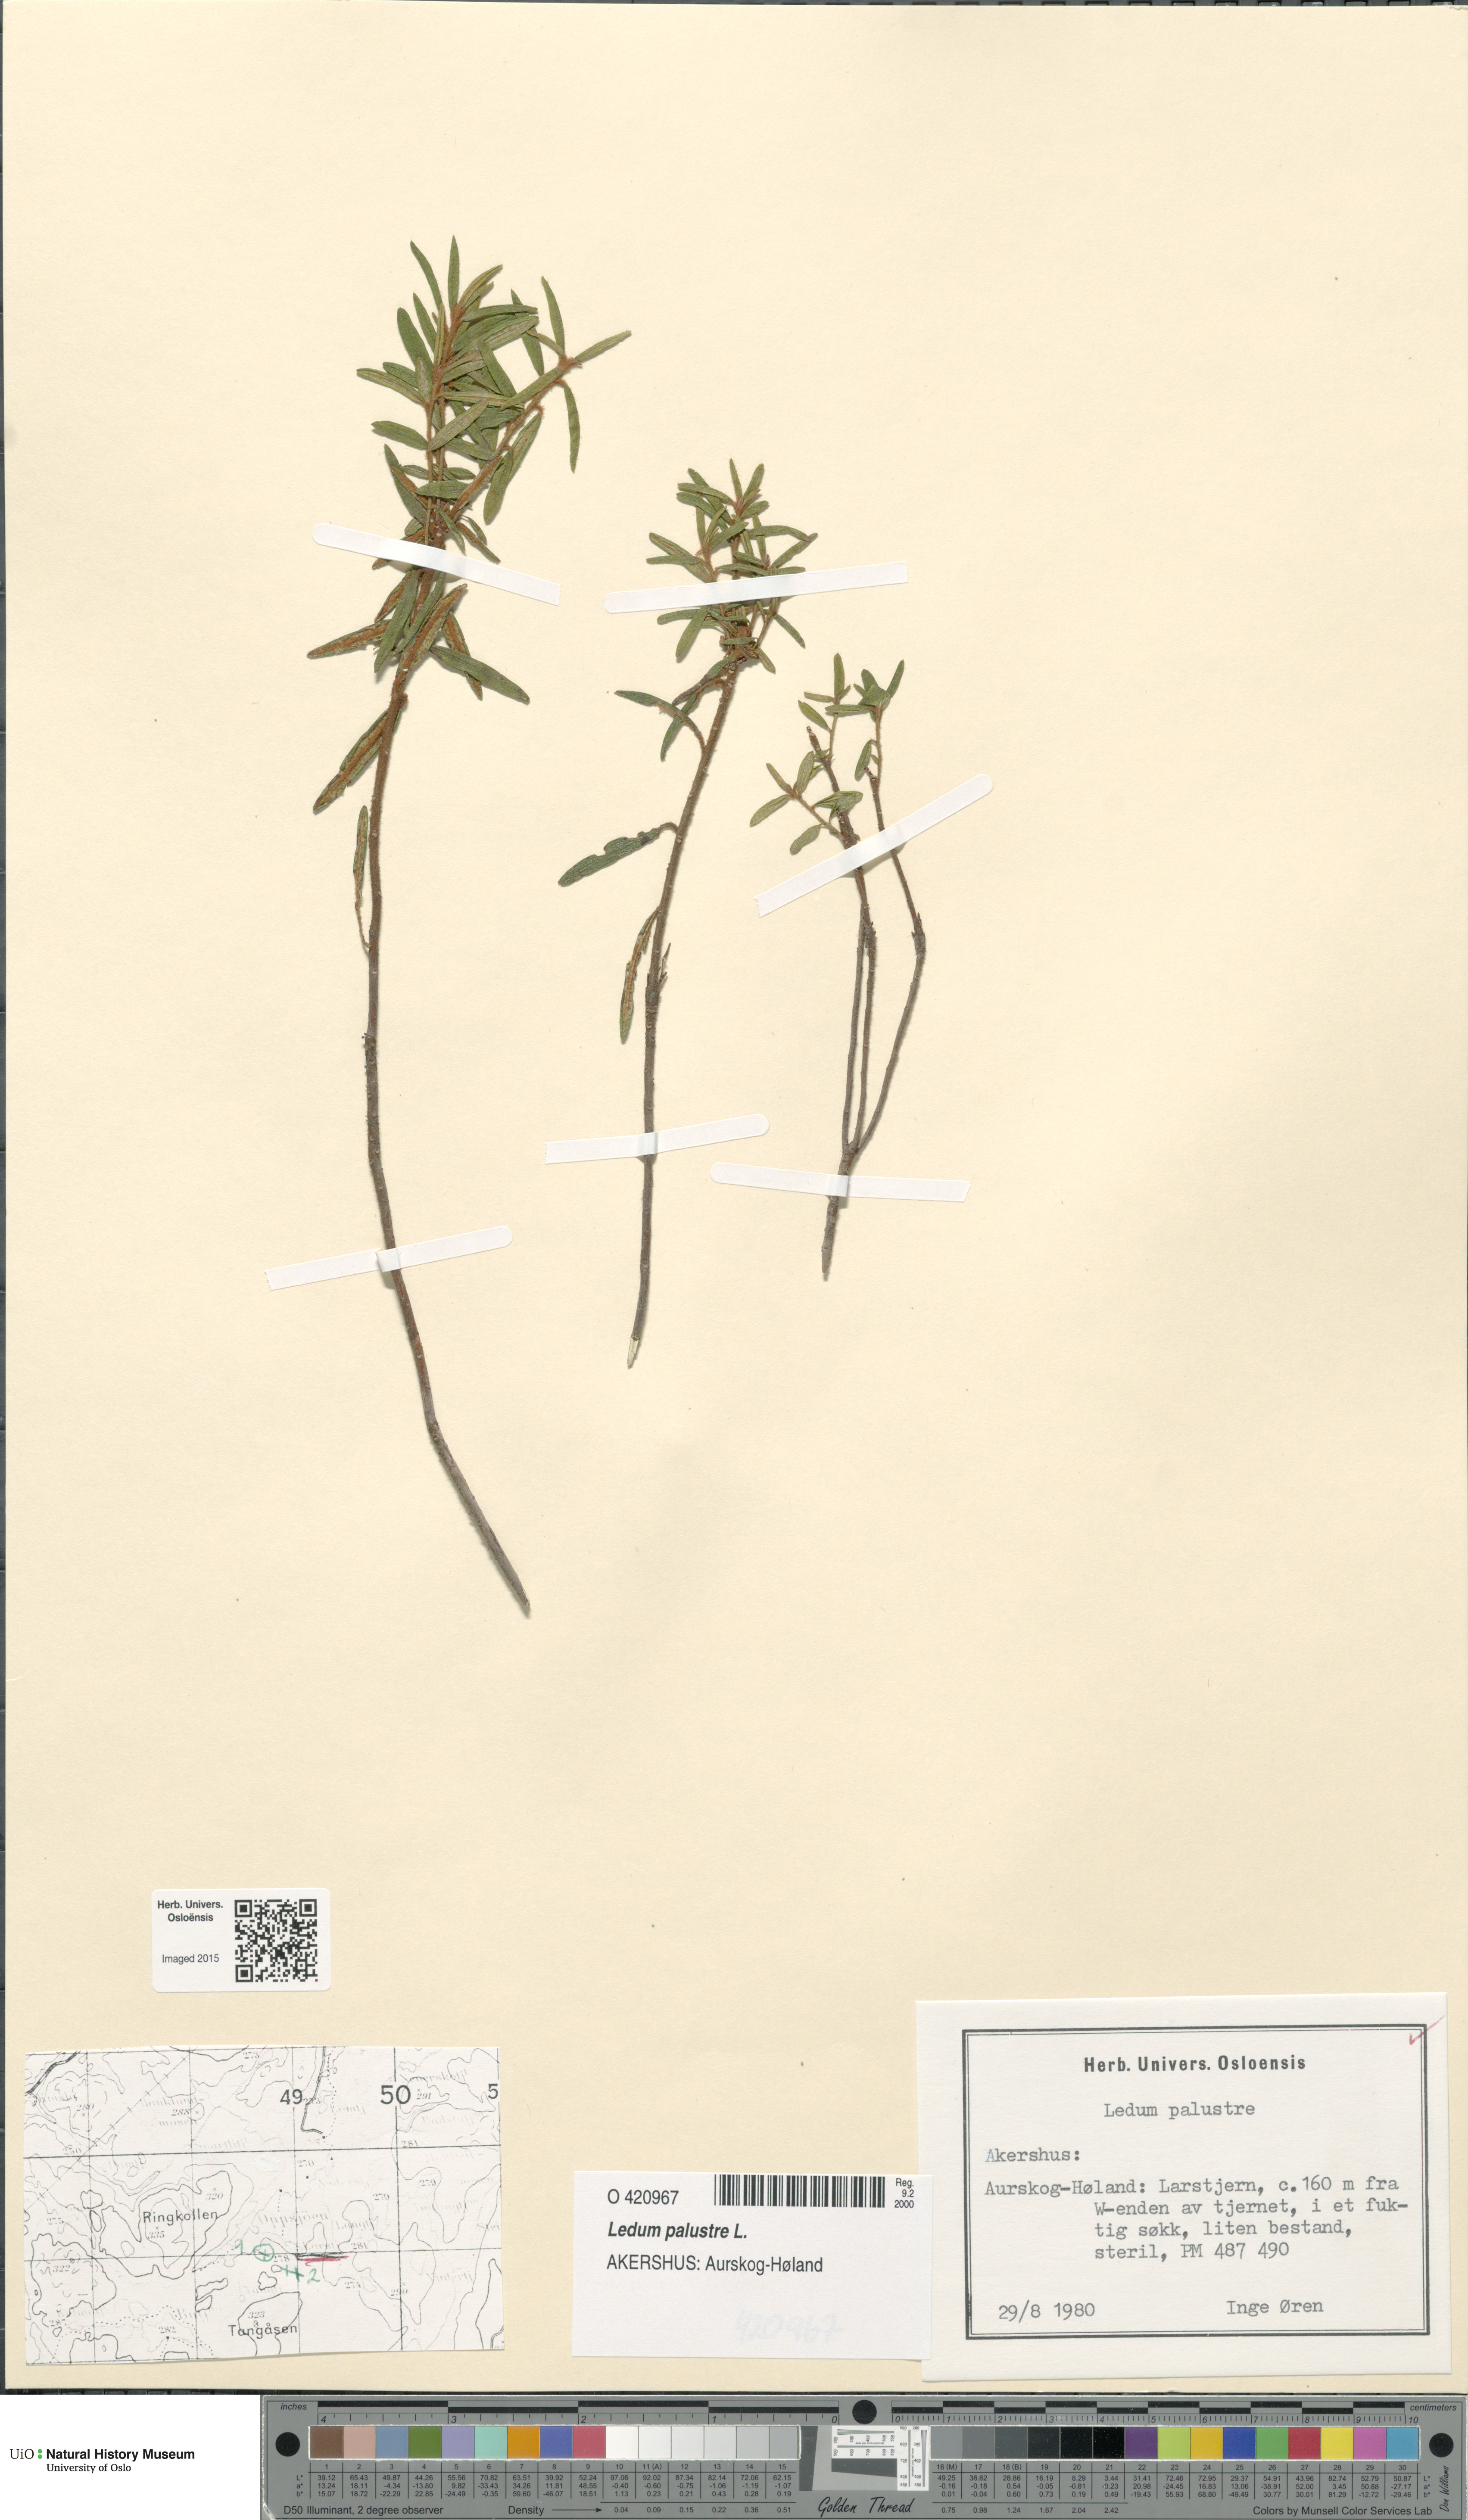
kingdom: Plantae
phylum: Tracheophyta
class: Magnoliopsida
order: Ericales
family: Ericaceae
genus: Rhododendron
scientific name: Rhododendron tomentosum
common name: Marsh labrador tea
